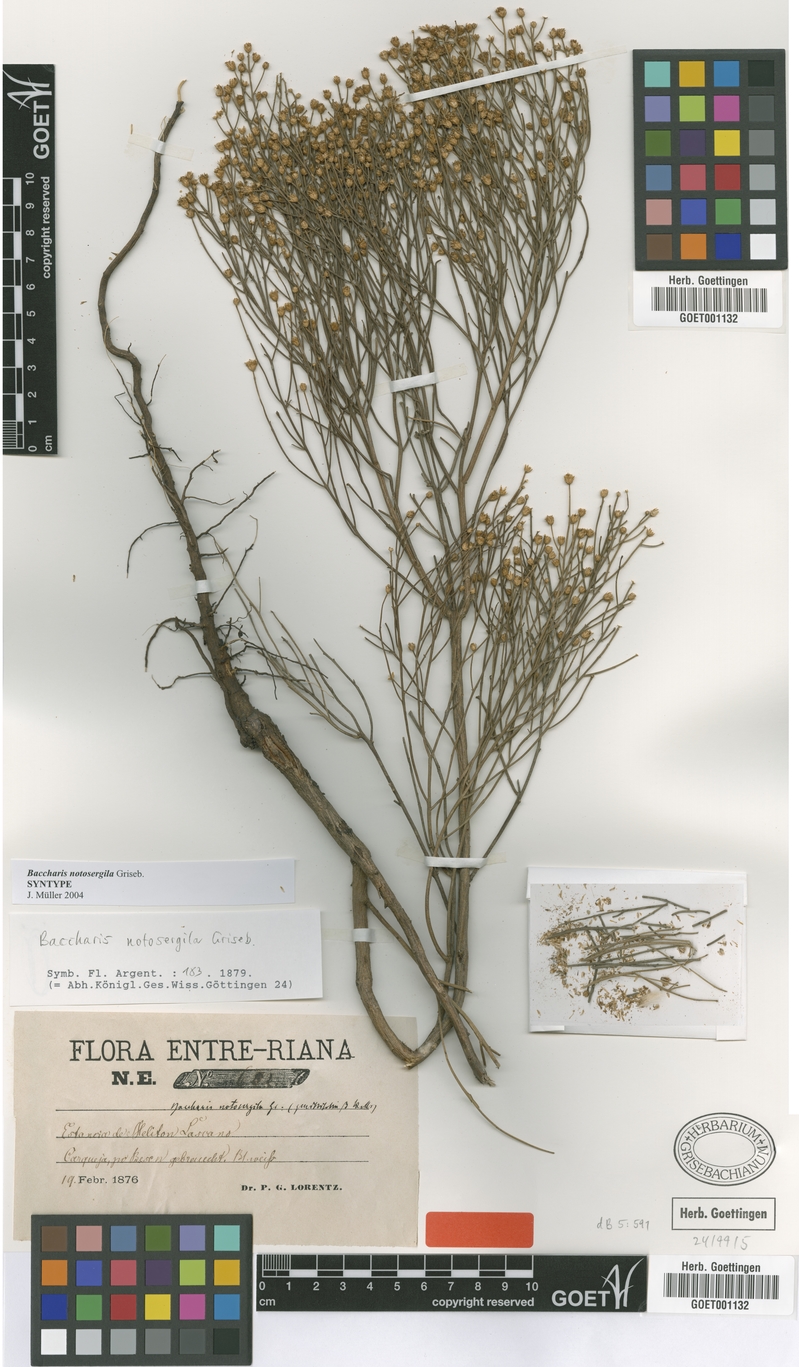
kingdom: Plantae
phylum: Tracheophyta
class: Magnoliopsida
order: Asterales
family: Asteraceae
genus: Baccharis
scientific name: Baccharis notosergila
